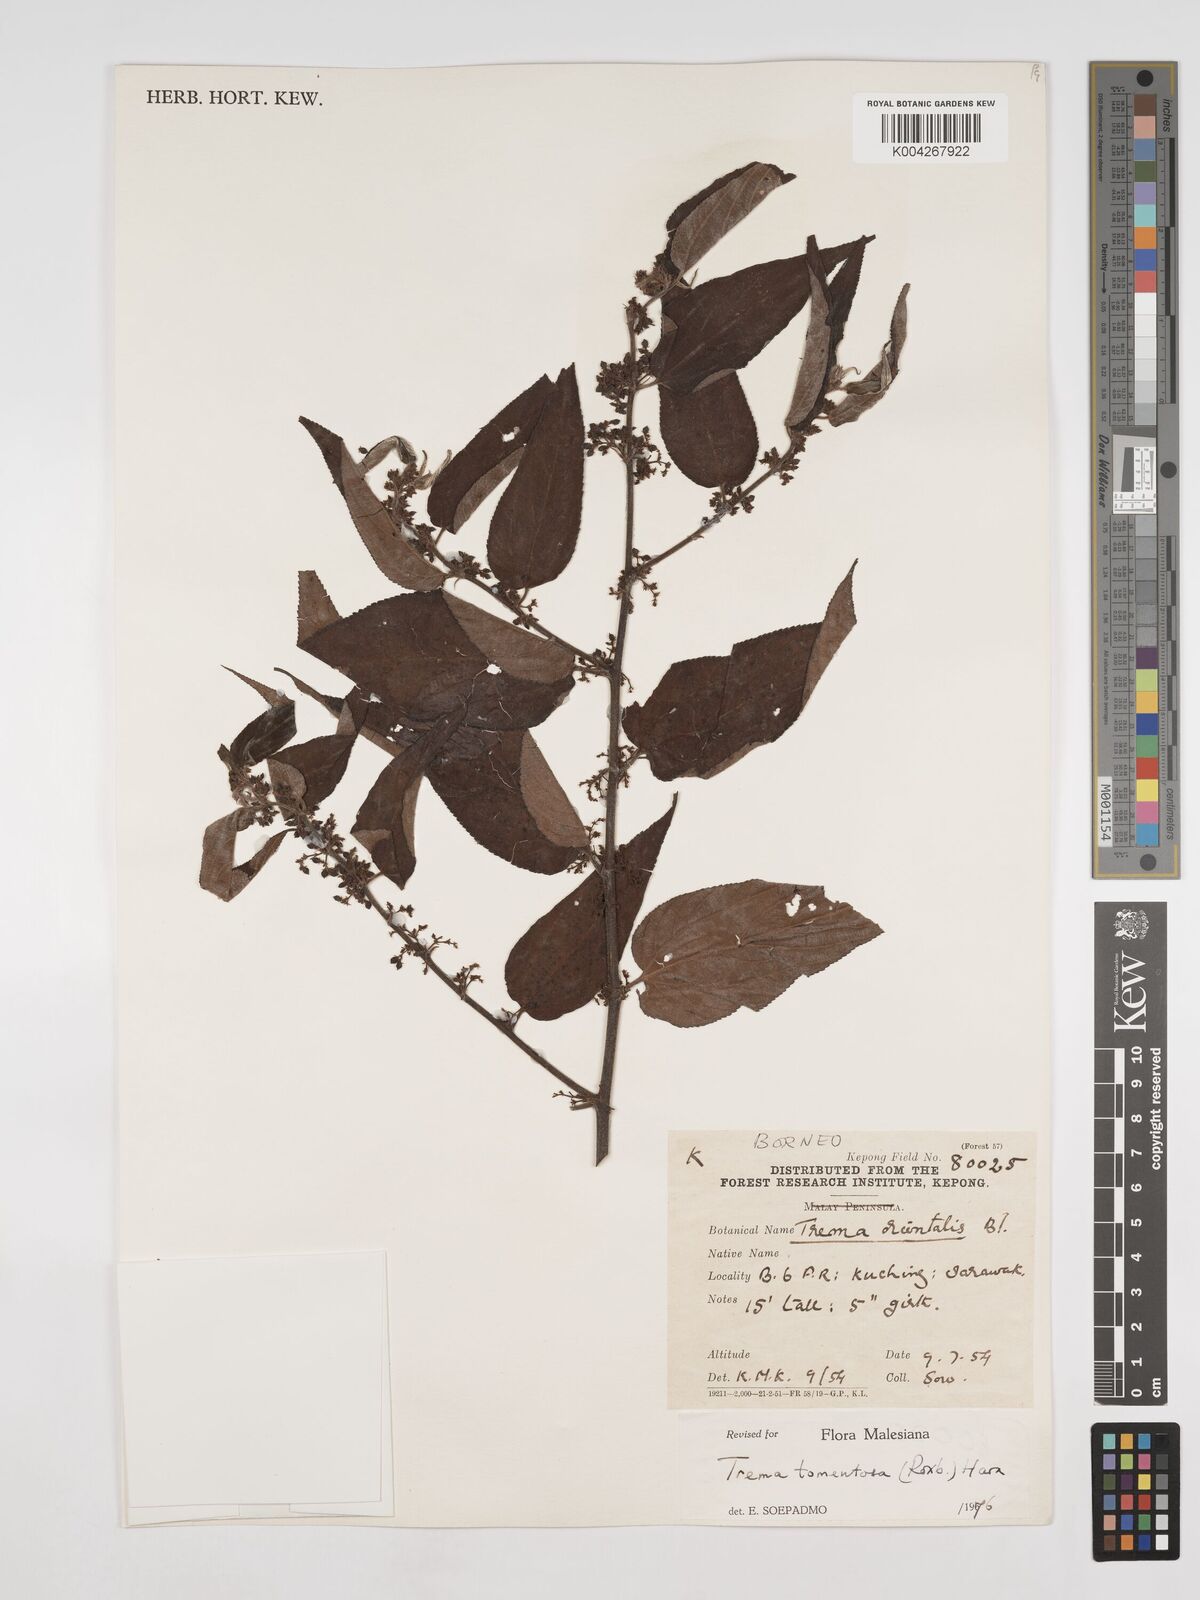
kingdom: Plantae
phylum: Tracheophyta
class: Magnoliopsida
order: Rosales
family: Cannabaceae
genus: Trema
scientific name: Trema tomentosum
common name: Peach-leaf-poisonbush
